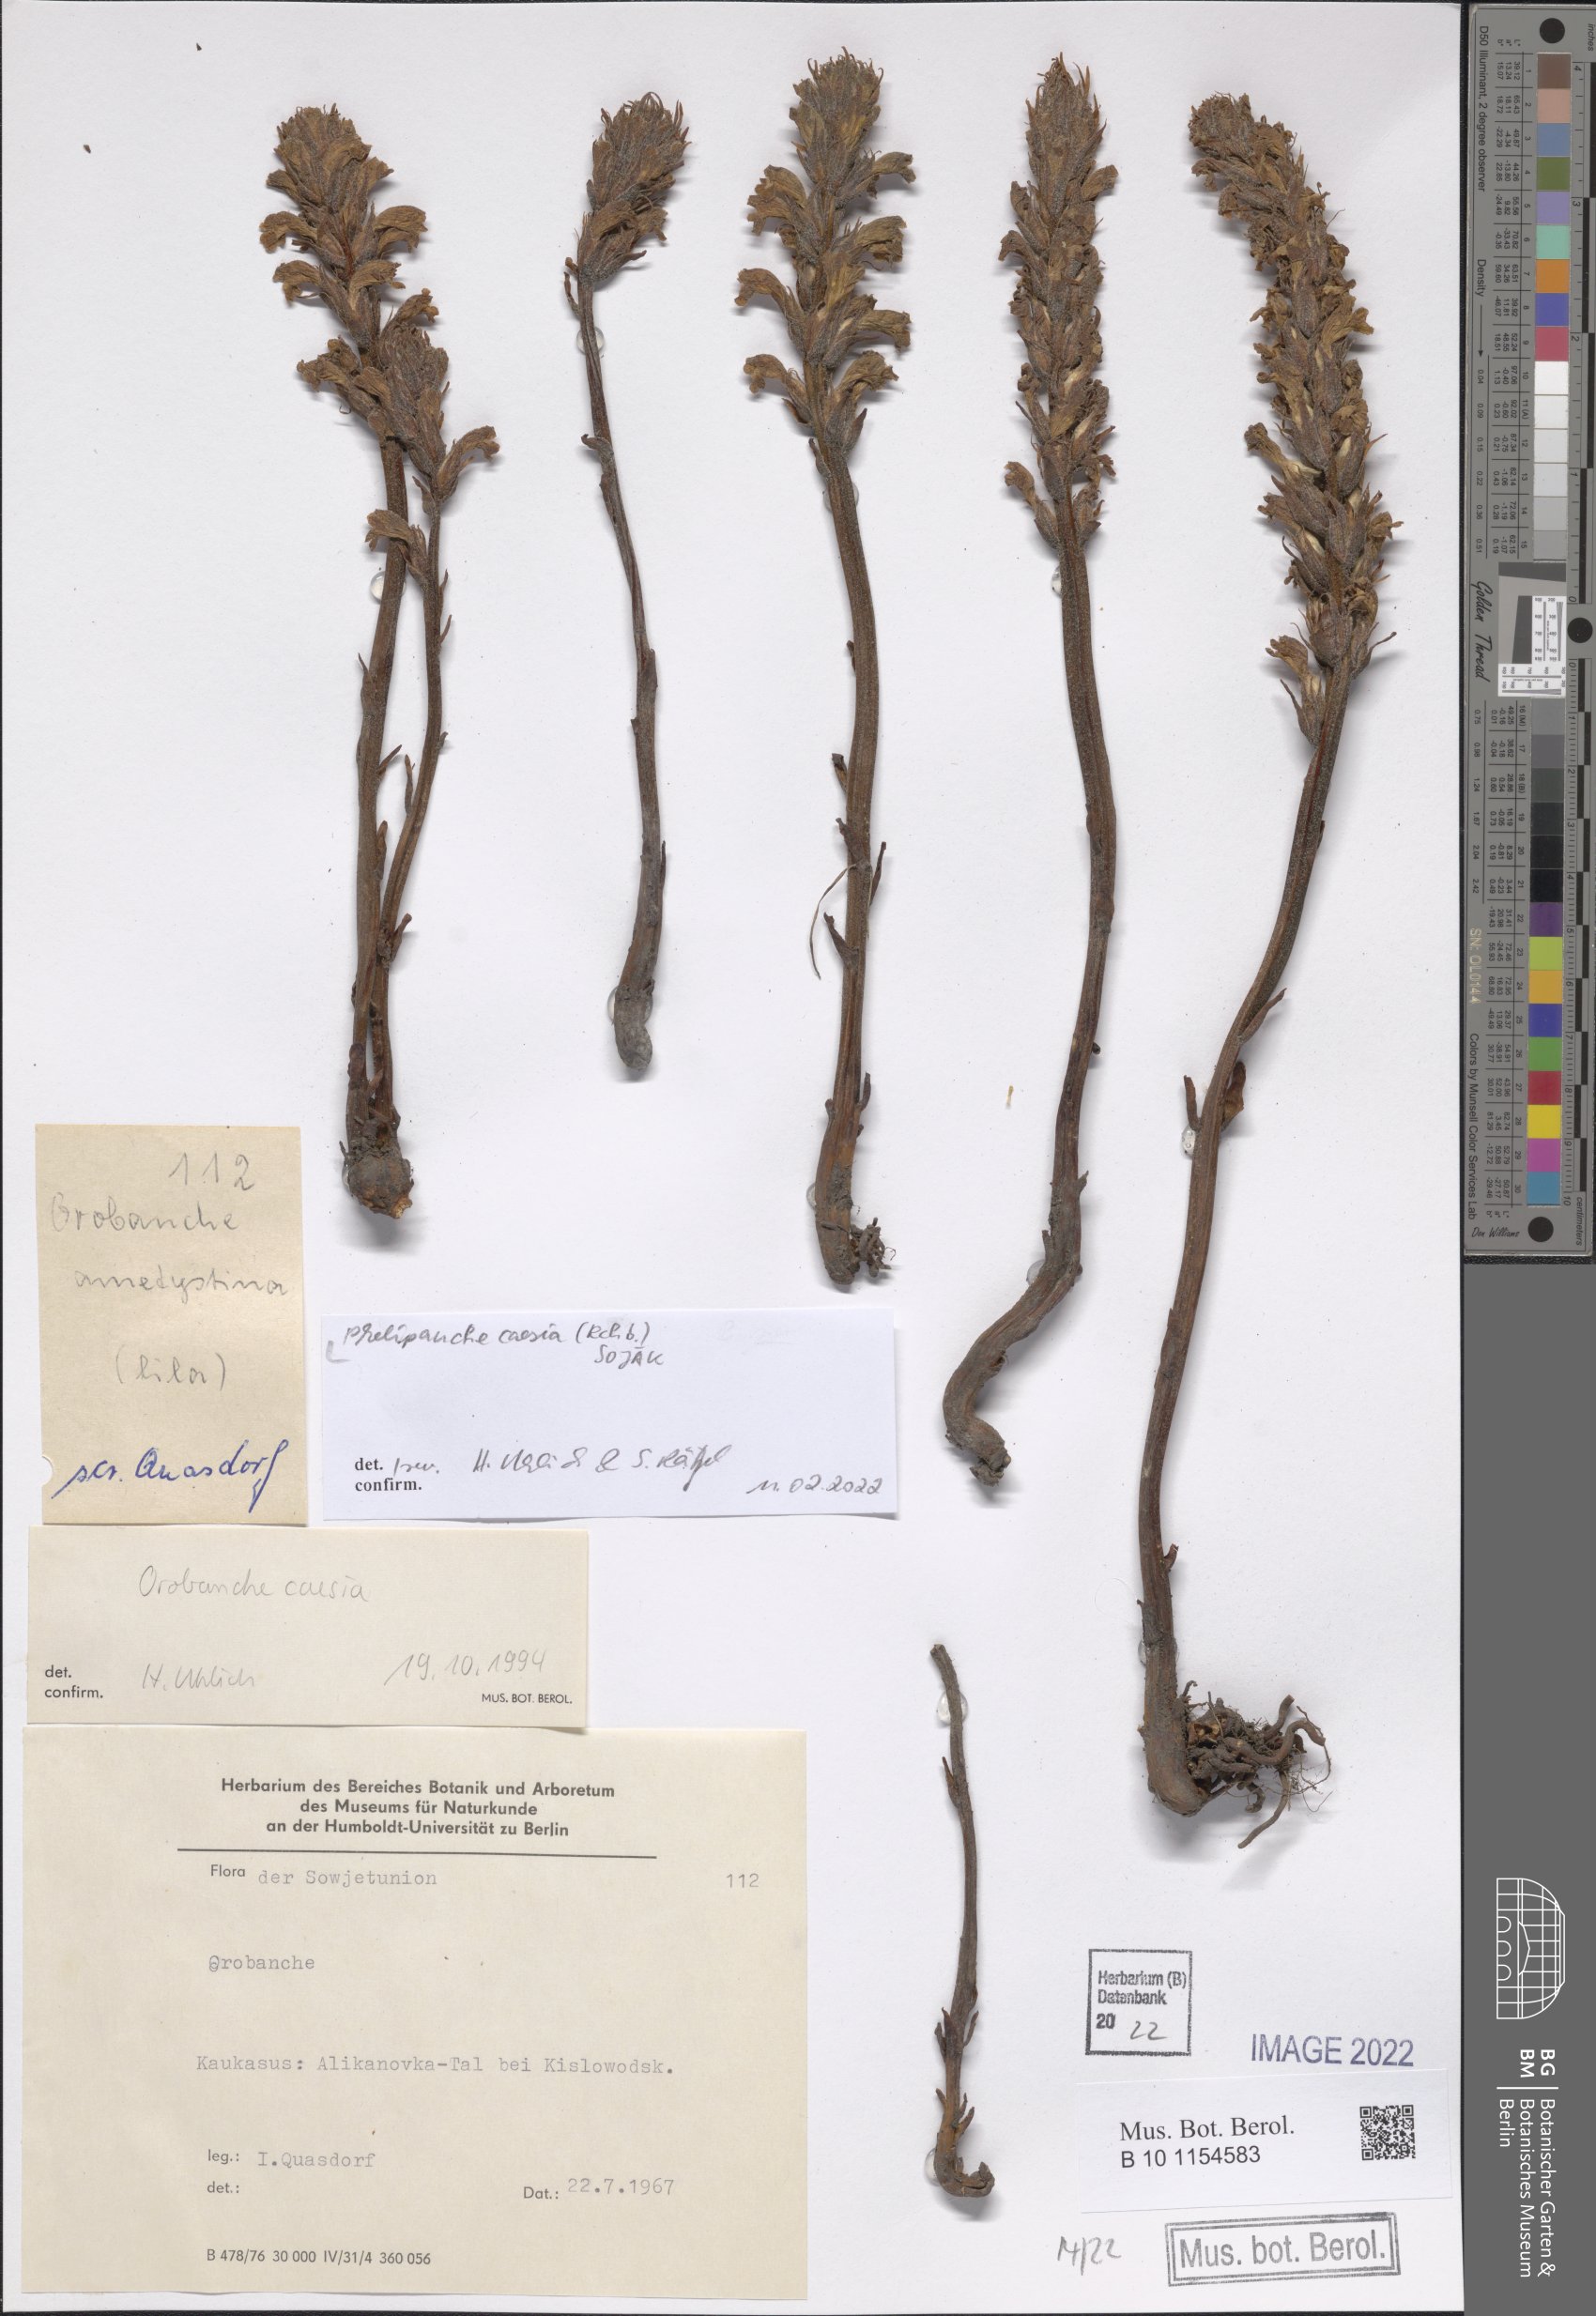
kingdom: Plantae
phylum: Tracheophyta
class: Magnoliopsida
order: Lamiales
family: Orobanchaceae
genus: Phelipanche
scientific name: Phelipanche caesia
